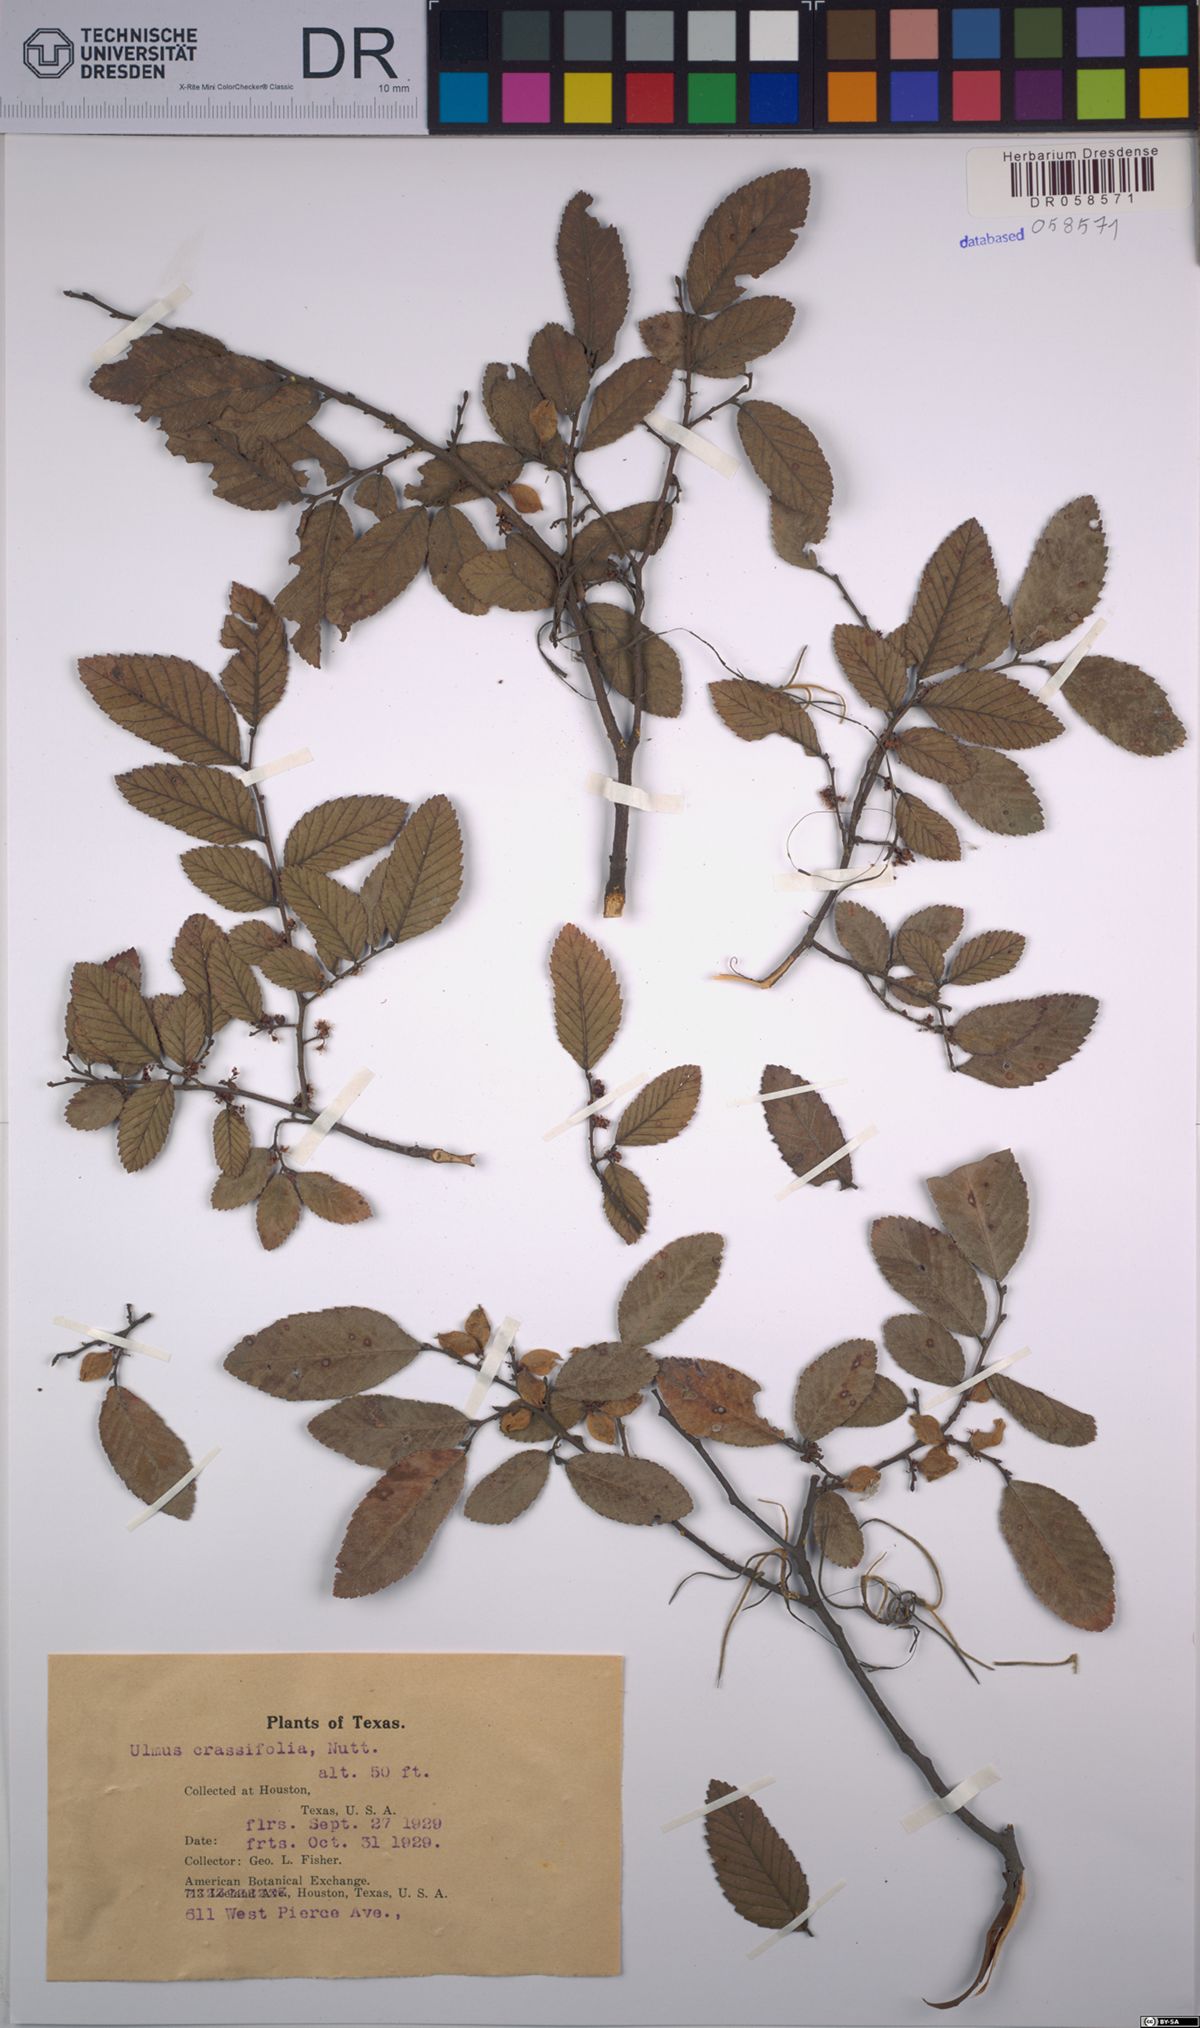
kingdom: Plantae
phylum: Tracheophyta
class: Magnoliopsida
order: Rosales
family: Ulmaceae
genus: Ulmus
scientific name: Ulmus crassifolia
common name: Basket elm
